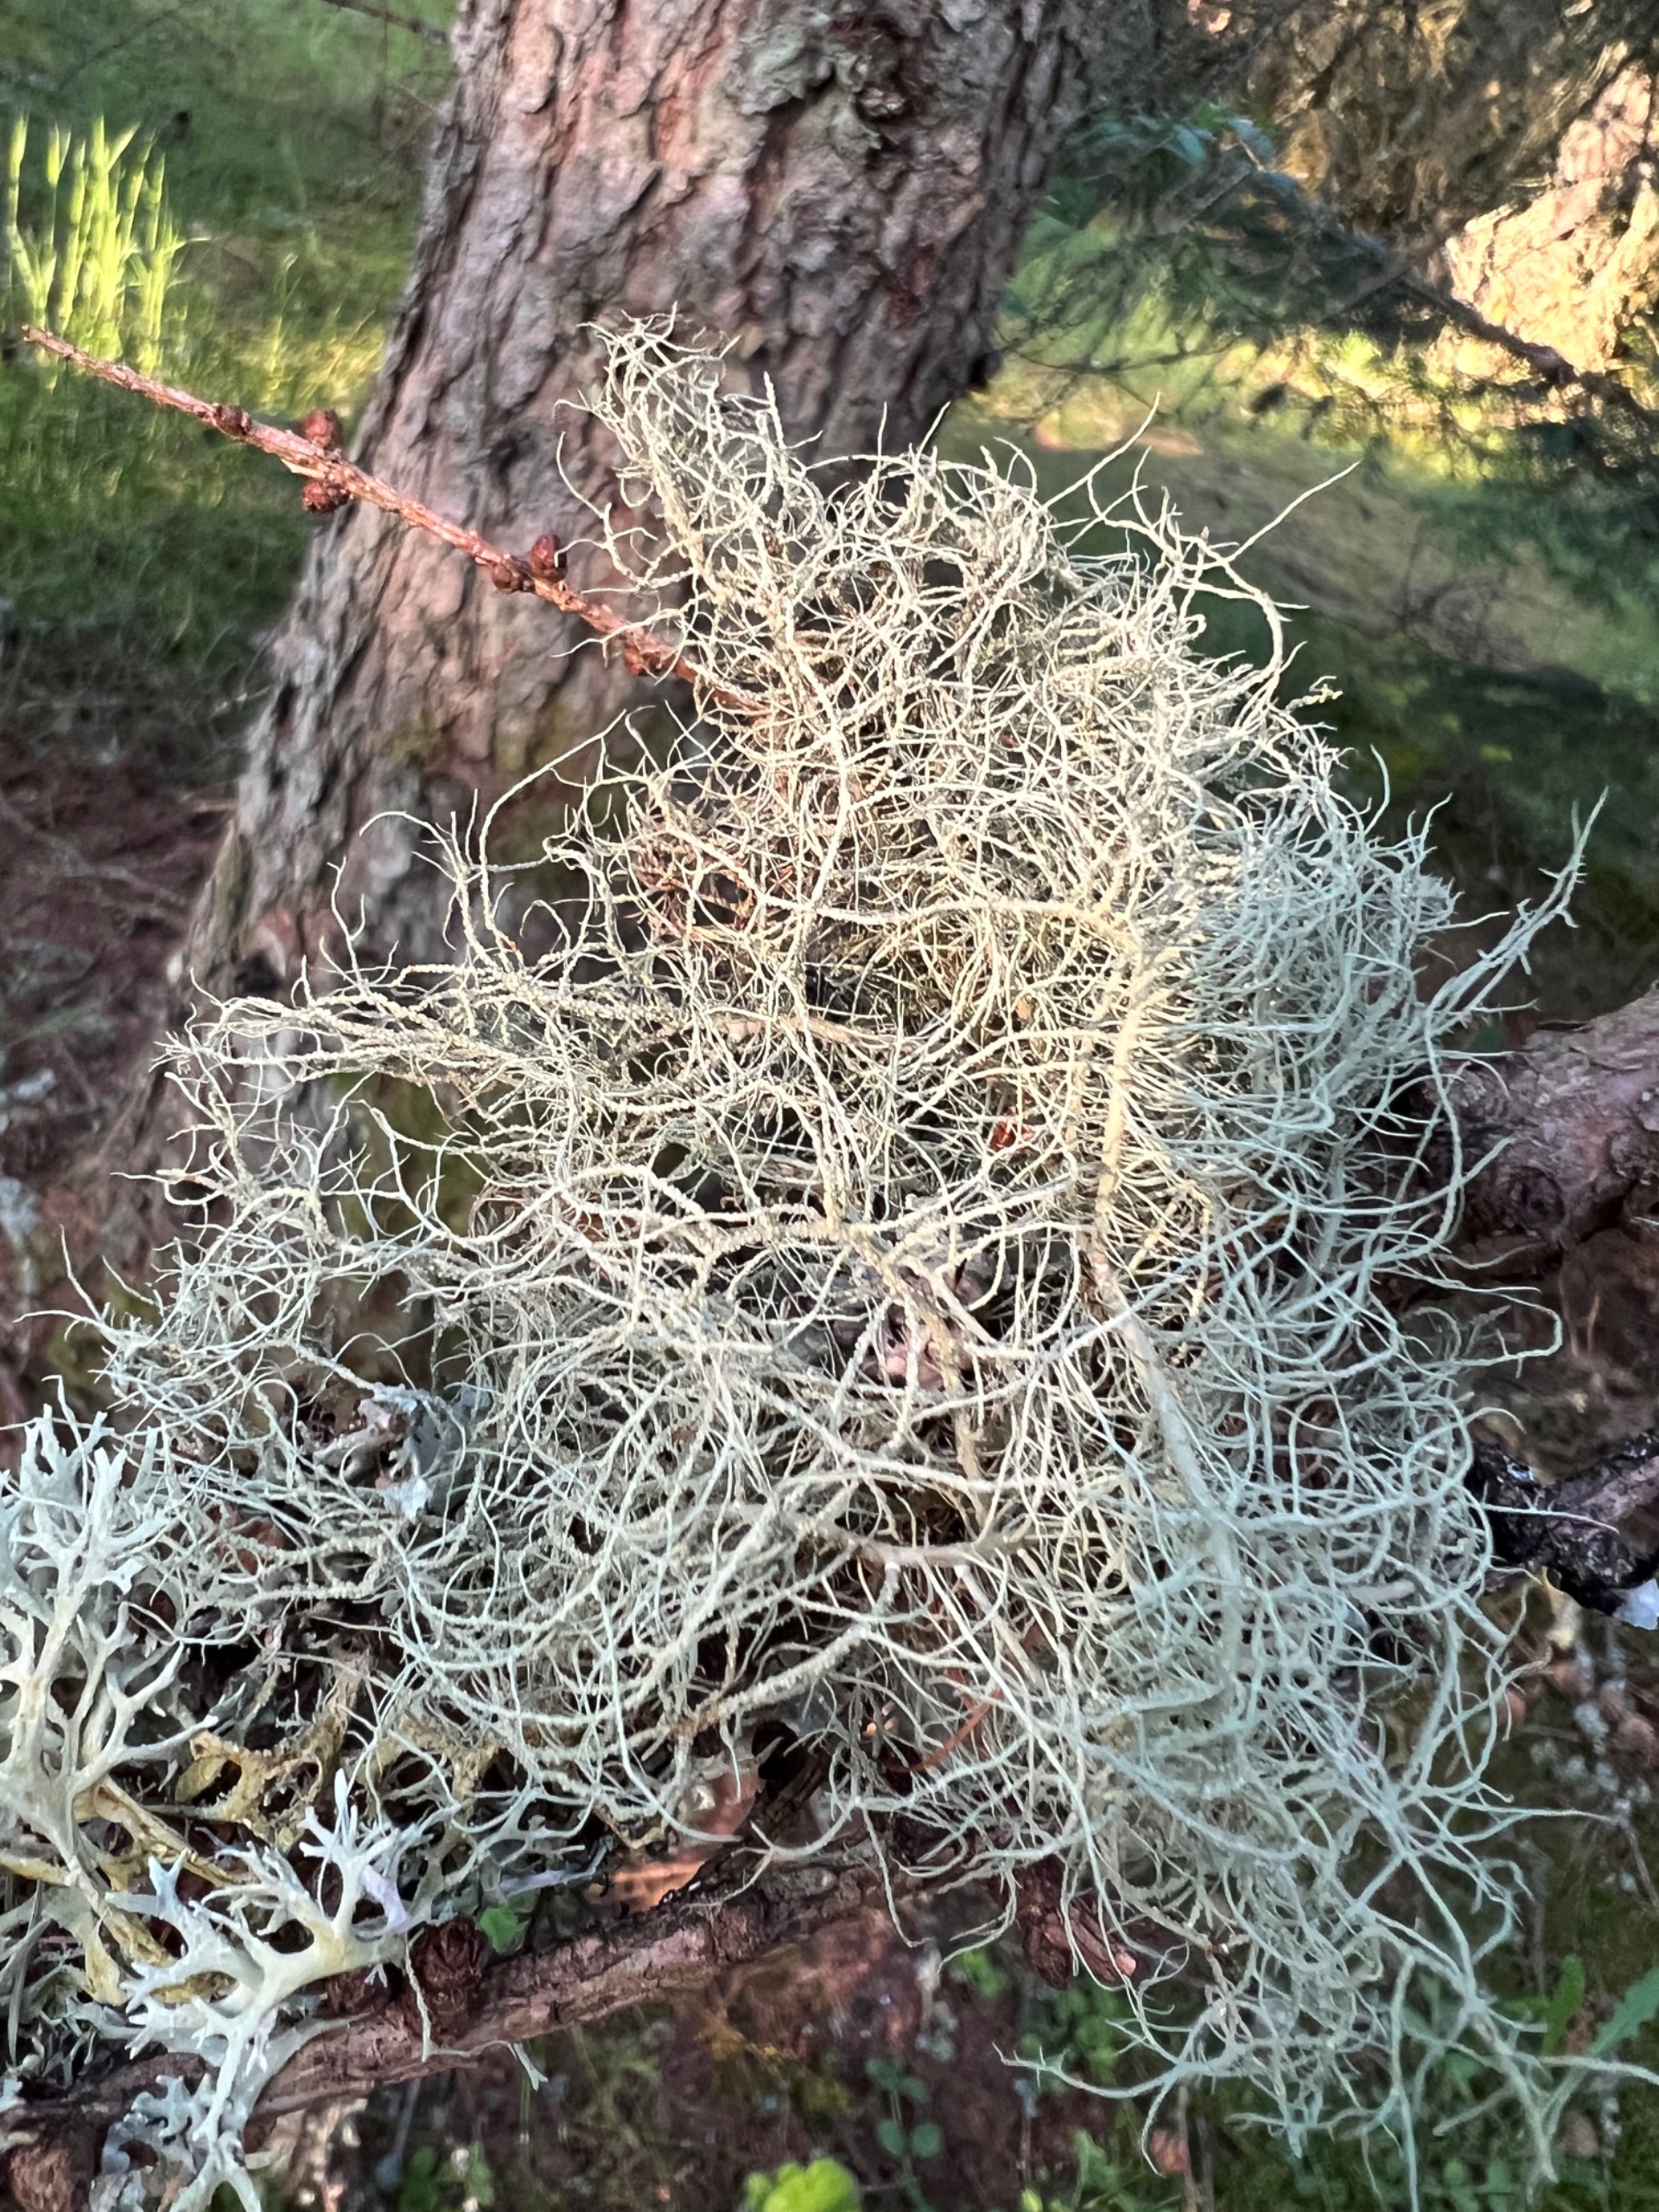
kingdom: Fungi
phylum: Ascomycota
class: Lecanoromycetes
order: Lecanorales
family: Parmeliaceae
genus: Usnea
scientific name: Usnea
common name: Skæglav
